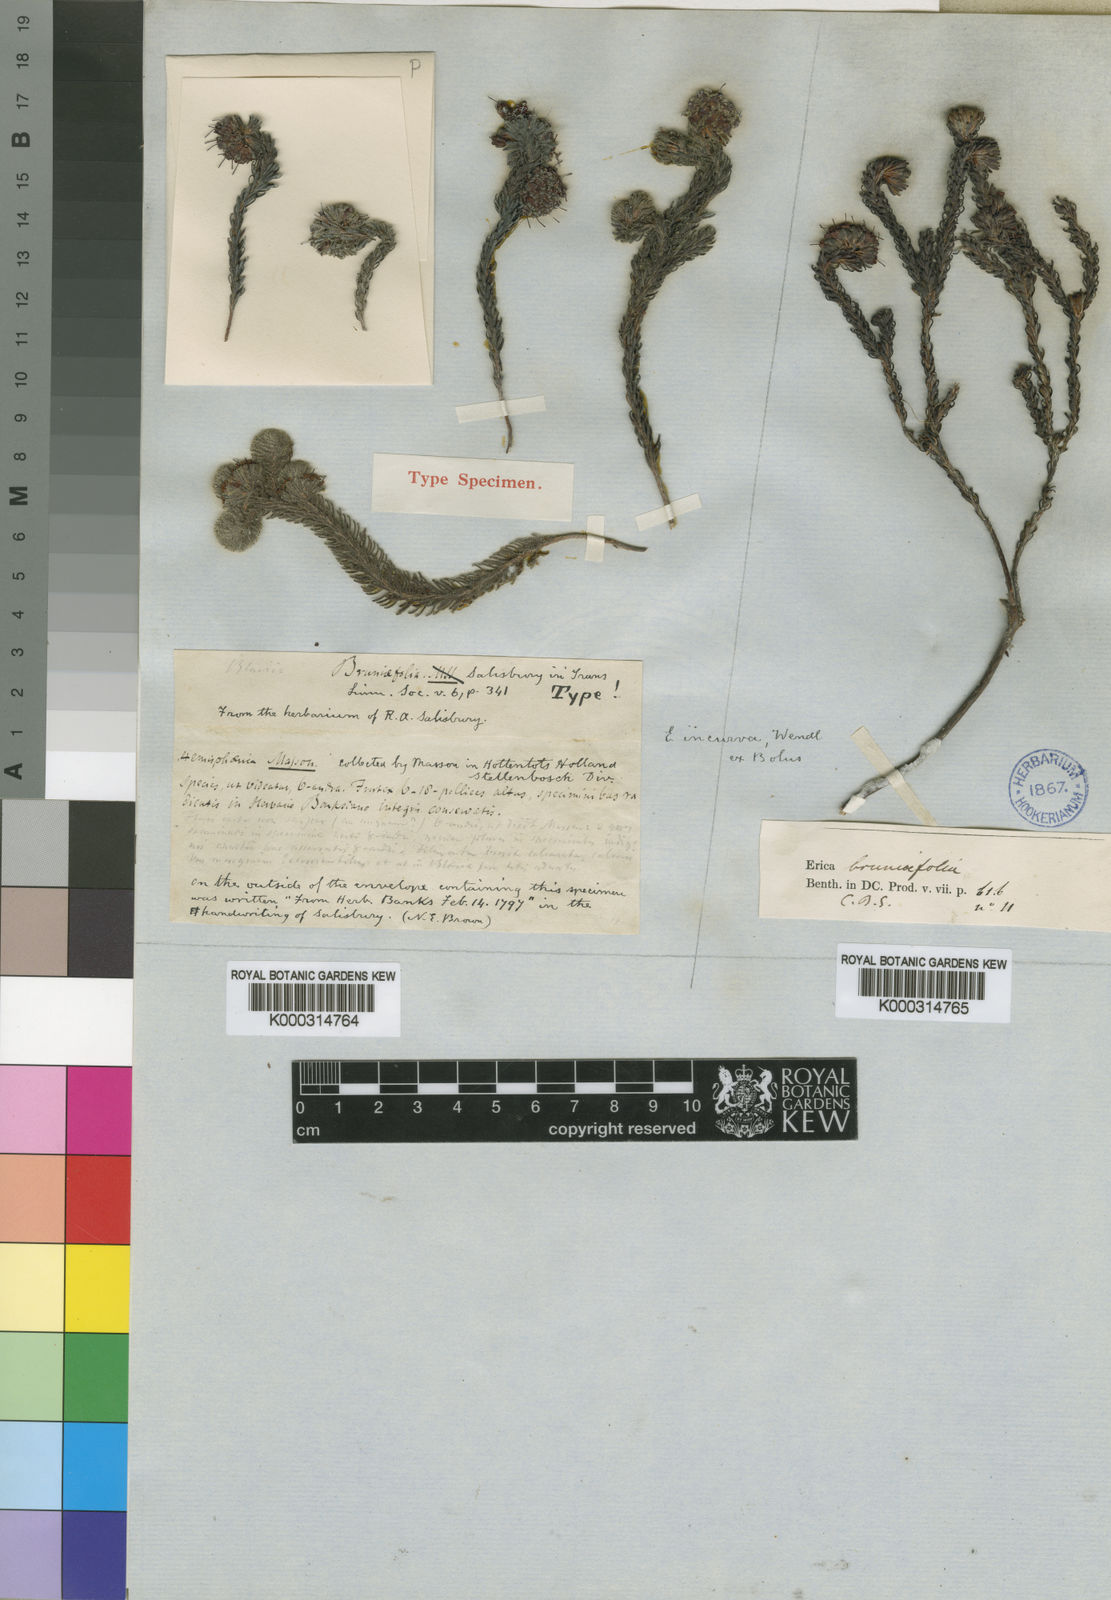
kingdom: Plantae
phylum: Tracheophyta
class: Magnoliopsida
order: Ericales
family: Ericaceae
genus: Erica
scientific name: Erica bruniifolia
